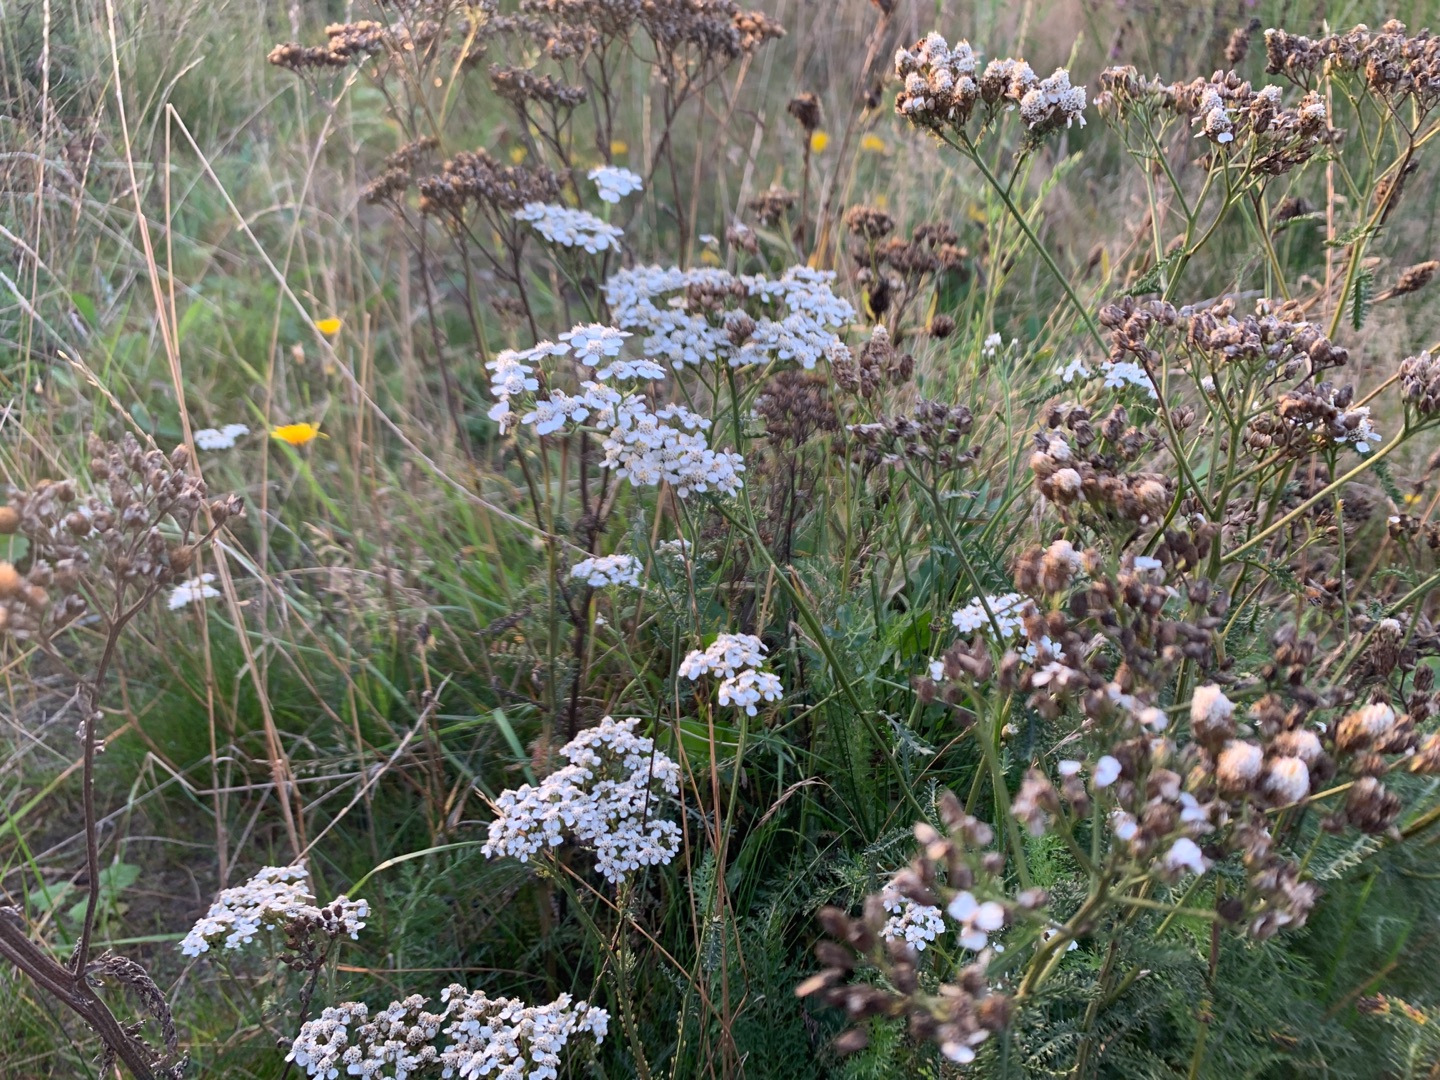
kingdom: Plantae
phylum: Tracheophyta
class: Magnoliopsida
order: Asterales
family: Asteraceae
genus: Achillea
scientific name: Achillea millefolium
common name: Almindelig røllike
